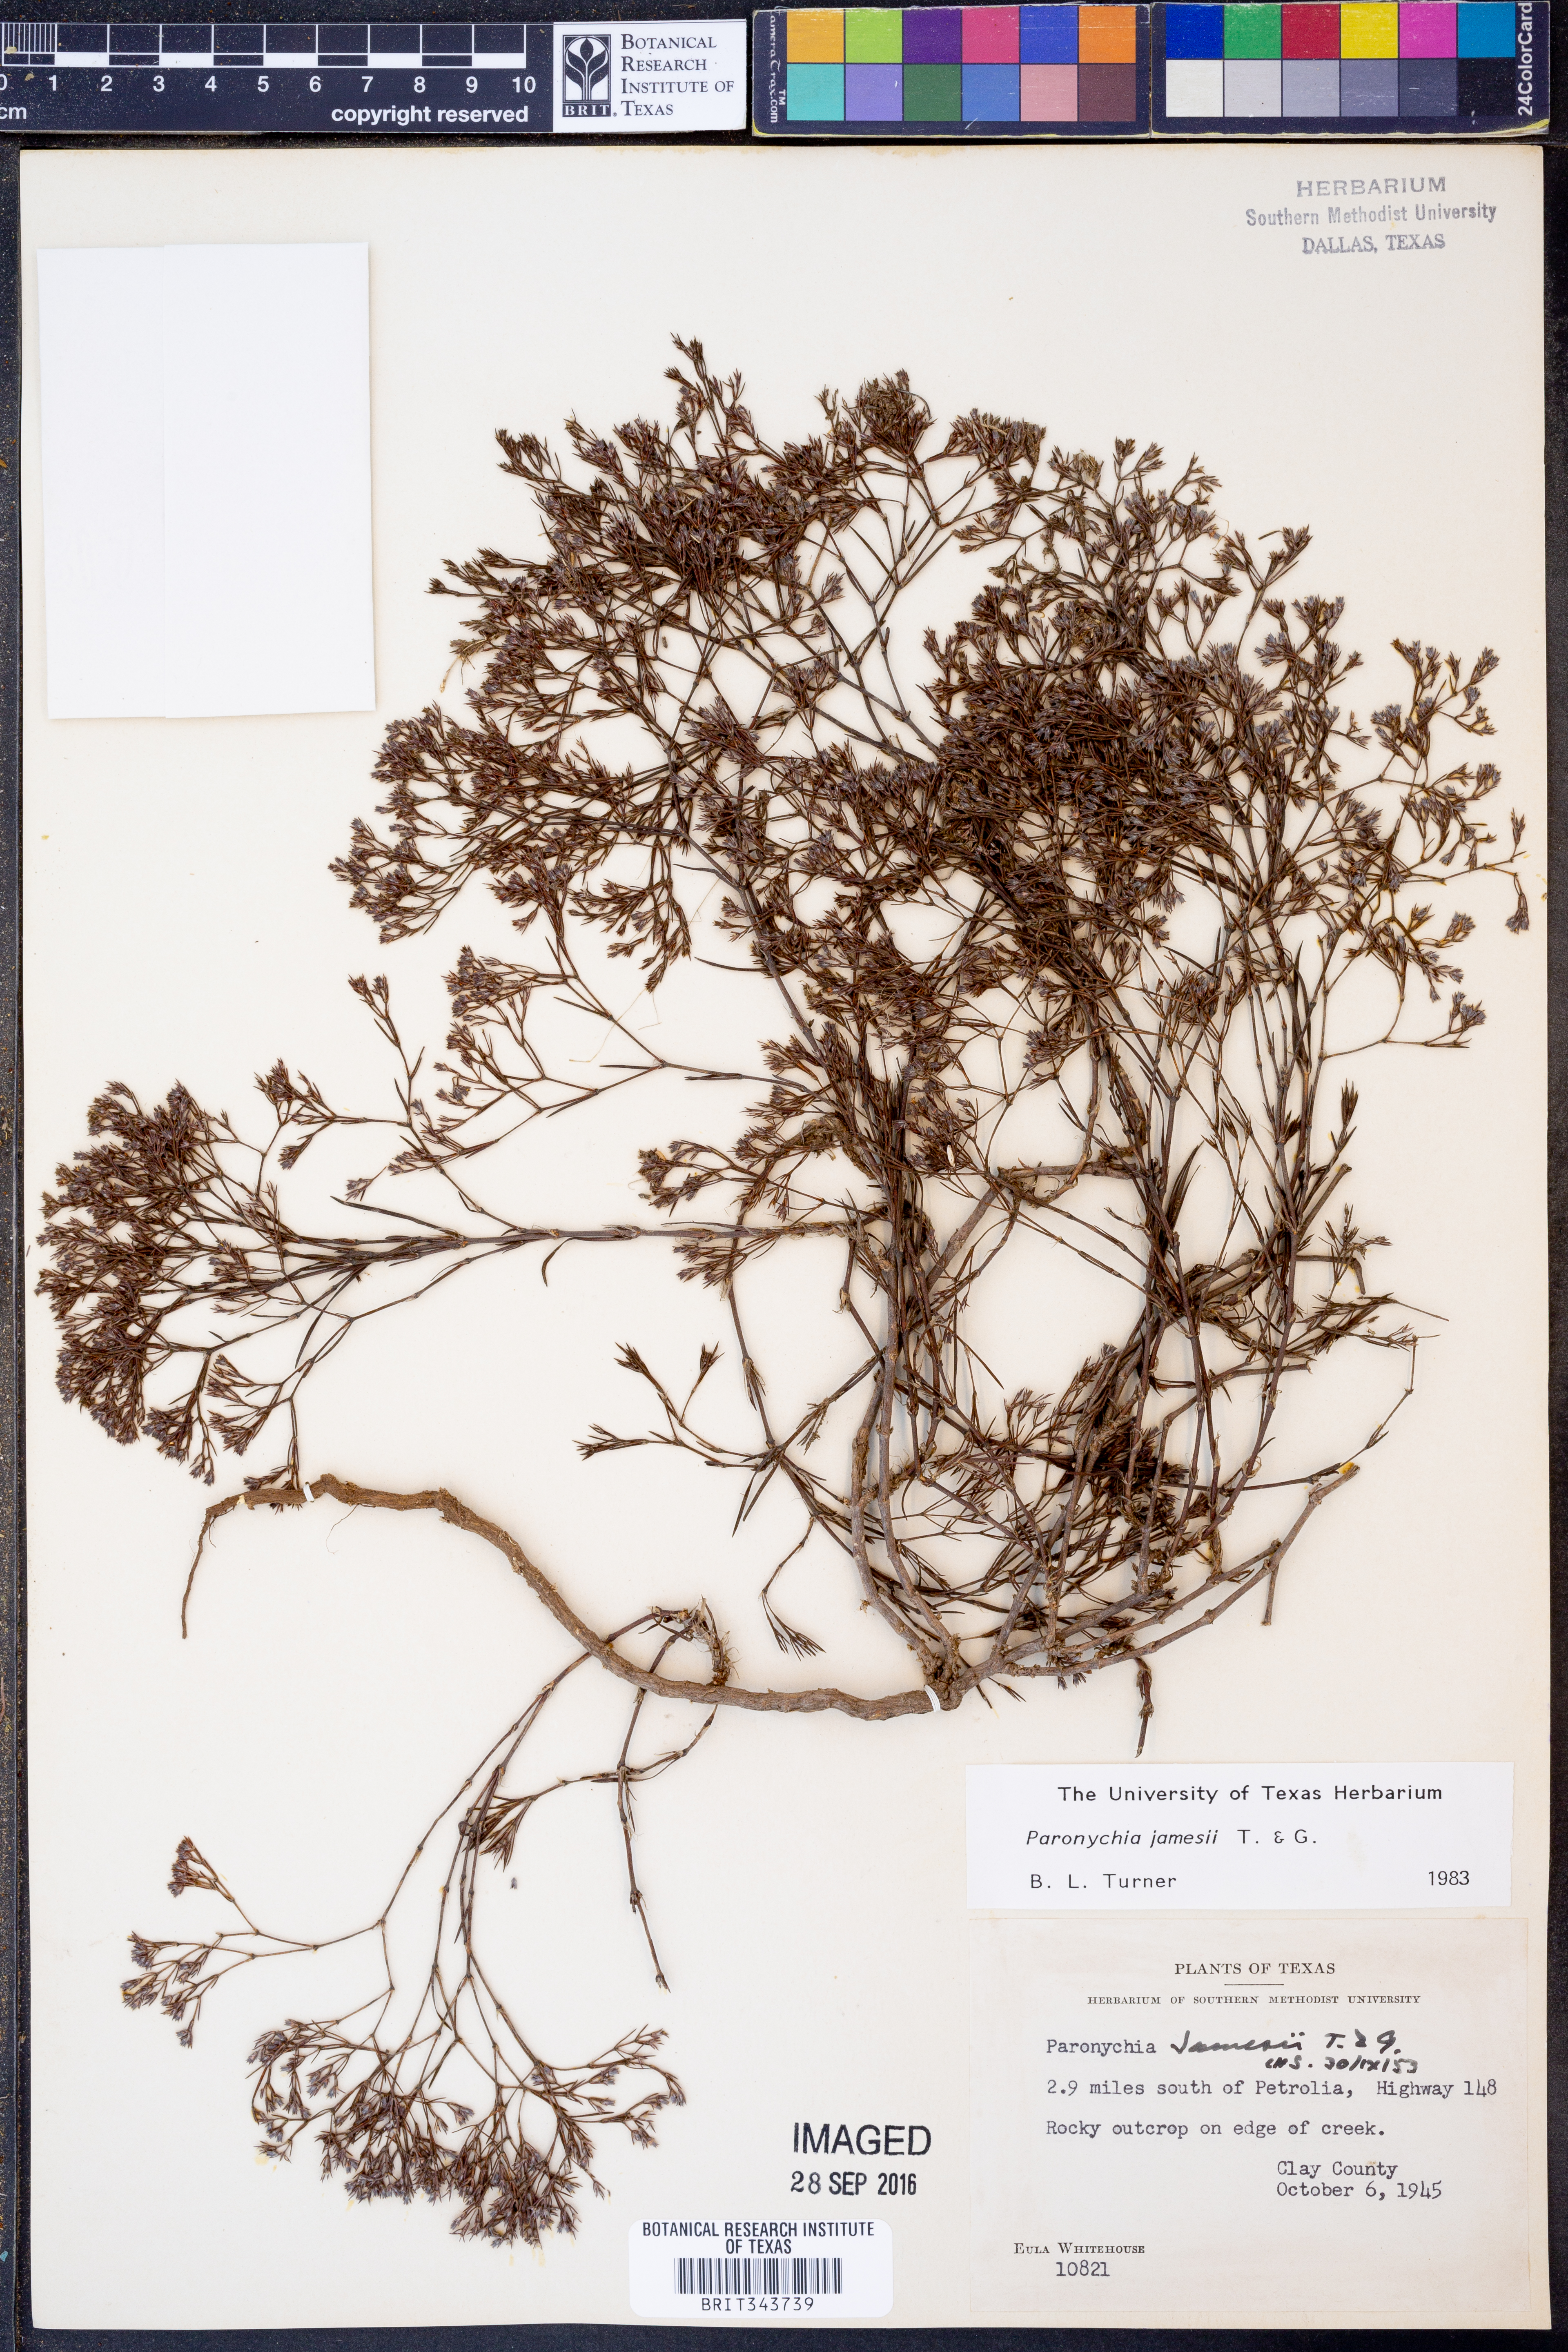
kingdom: Plantae
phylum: Tracheophyta
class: Magnoliopsida
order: Caryophyllales
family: Caryophyllaceae
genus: Paronychia
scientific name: Paronychia jamesii
